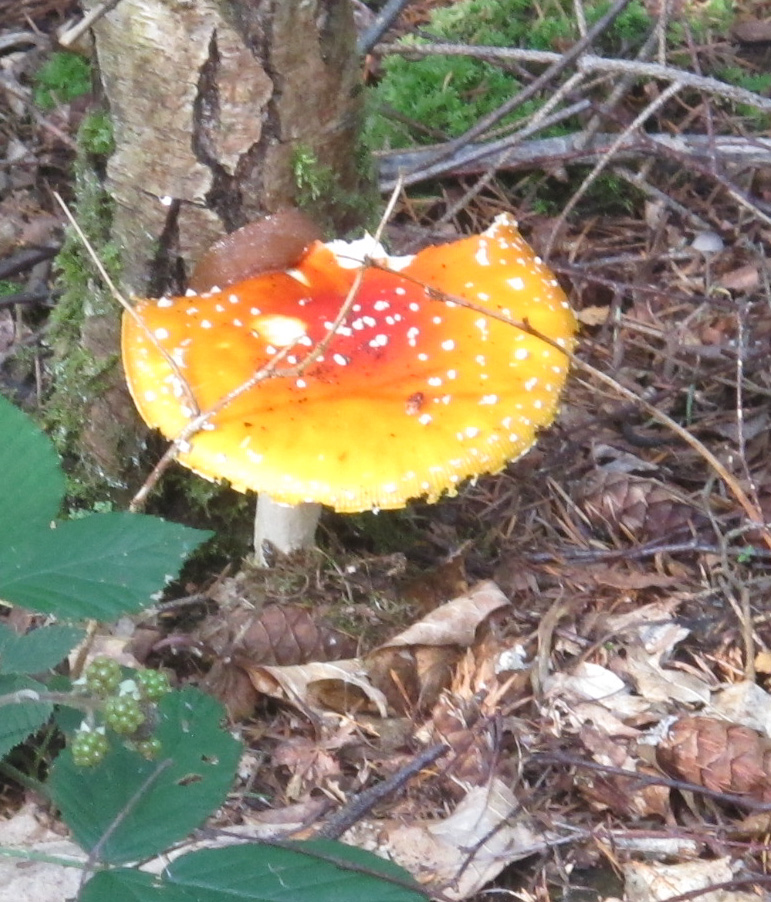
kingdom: Fungi
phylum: Basidiomycota
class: Agaricomycetes
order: Agaricales
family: Amanitaceae
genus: Amanita
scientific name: Amanita muscaria
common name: rød fluesvamp
